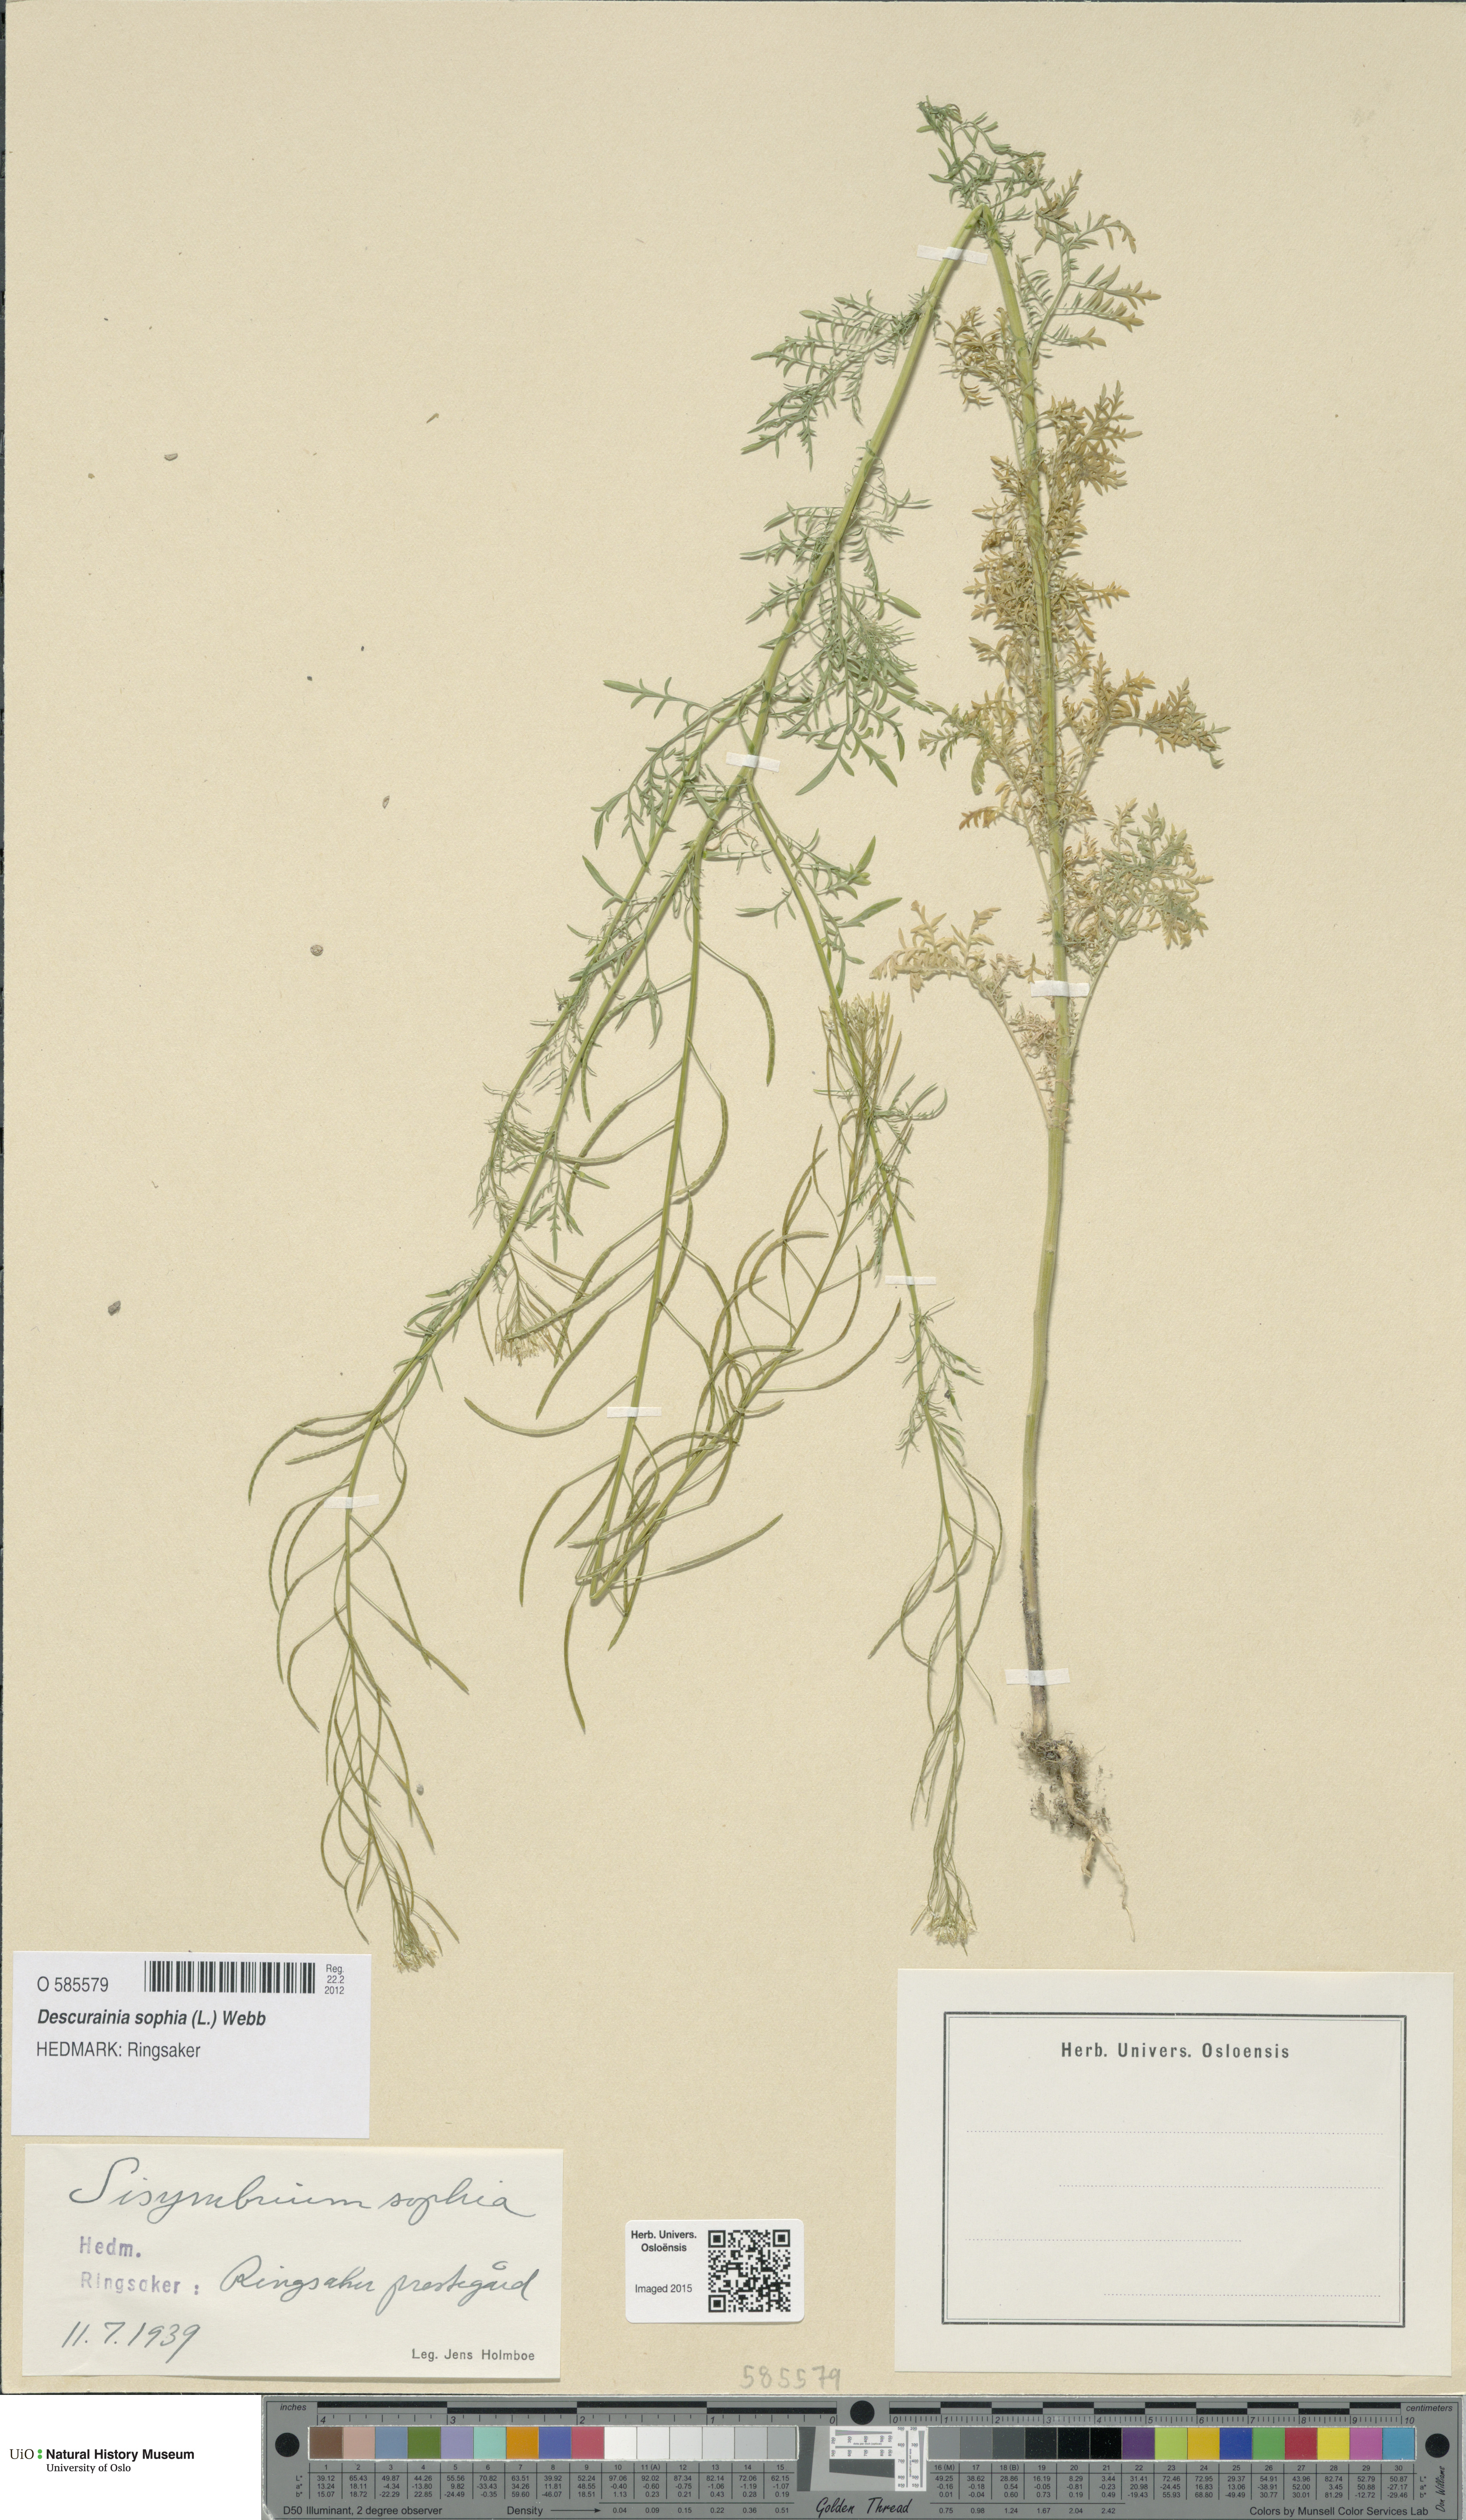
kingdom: Plantae
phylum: Tracheophyta
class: Magnoliopsida
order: Brassicales
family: Brassicaceae
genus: Descurainia
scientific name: Descurainia sophia
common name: Flixweed
